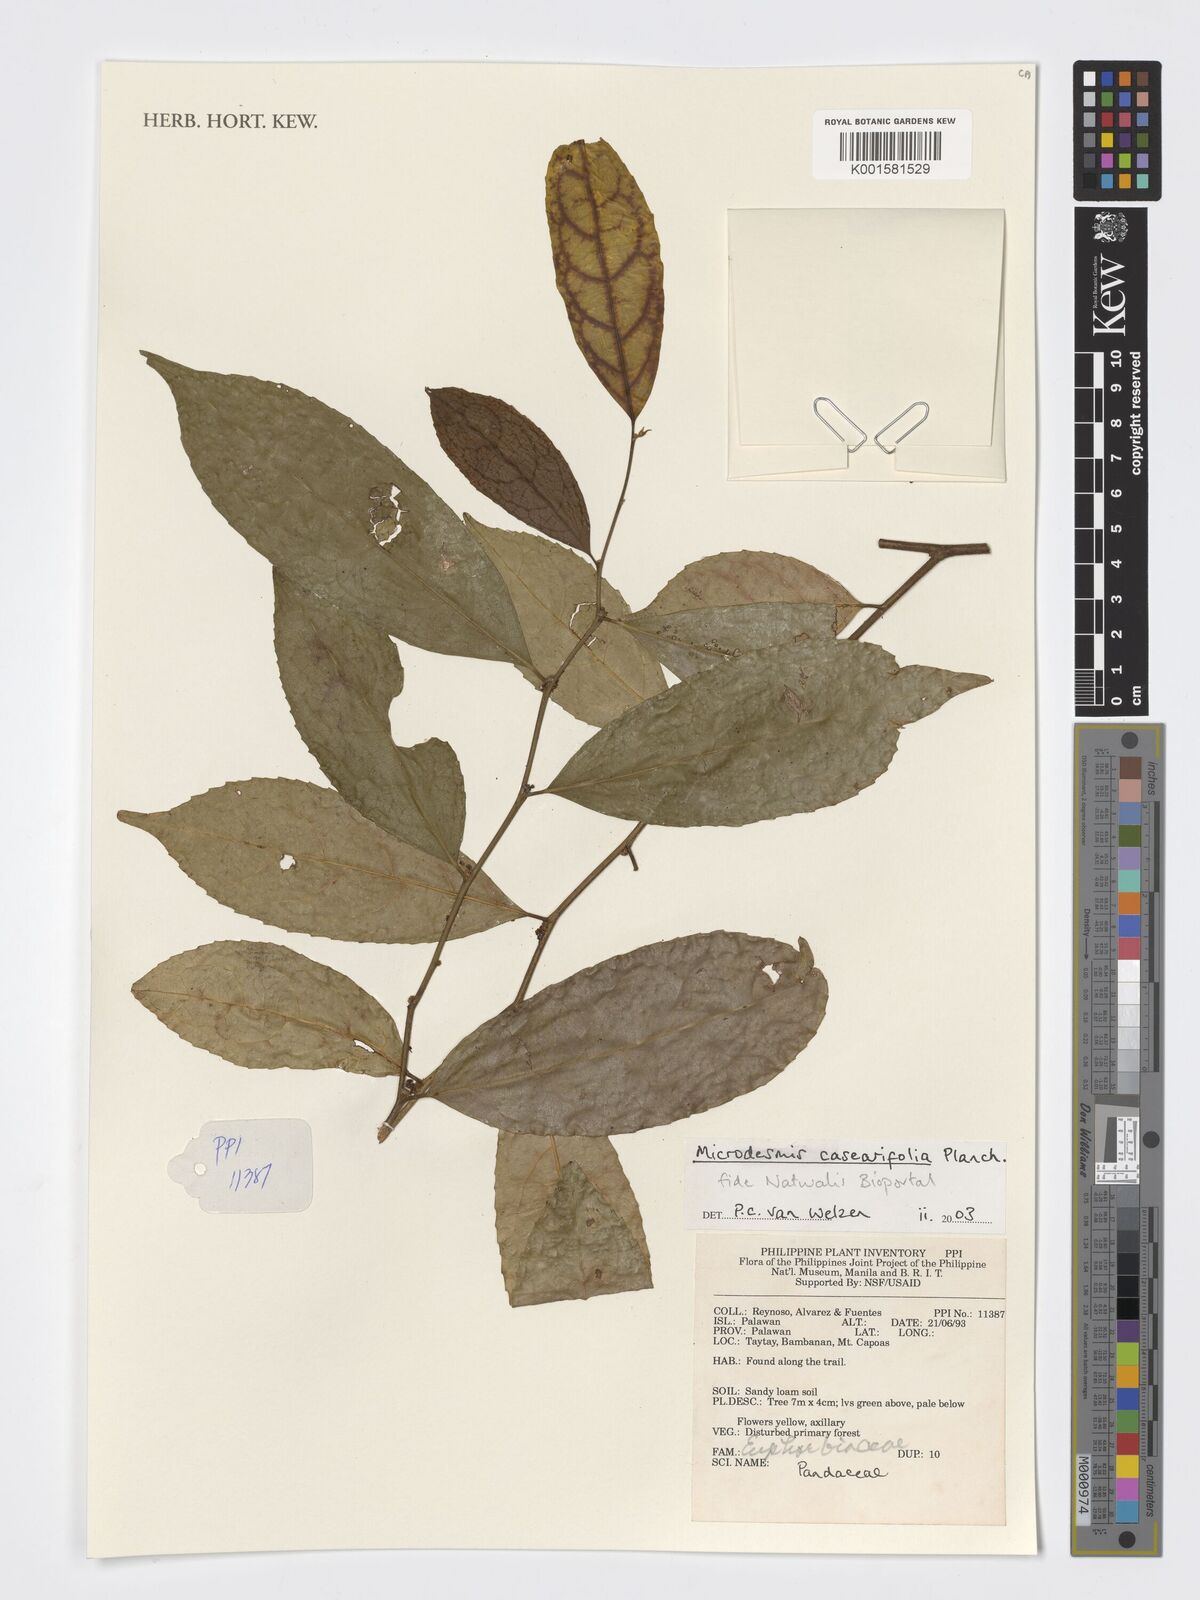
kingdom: Plantae
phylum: Tracheophyta
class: Magnoliopsida
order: Malpighiales
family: Pandaceae
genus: Microdesmis
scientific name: Microdesmis caseariifolia
